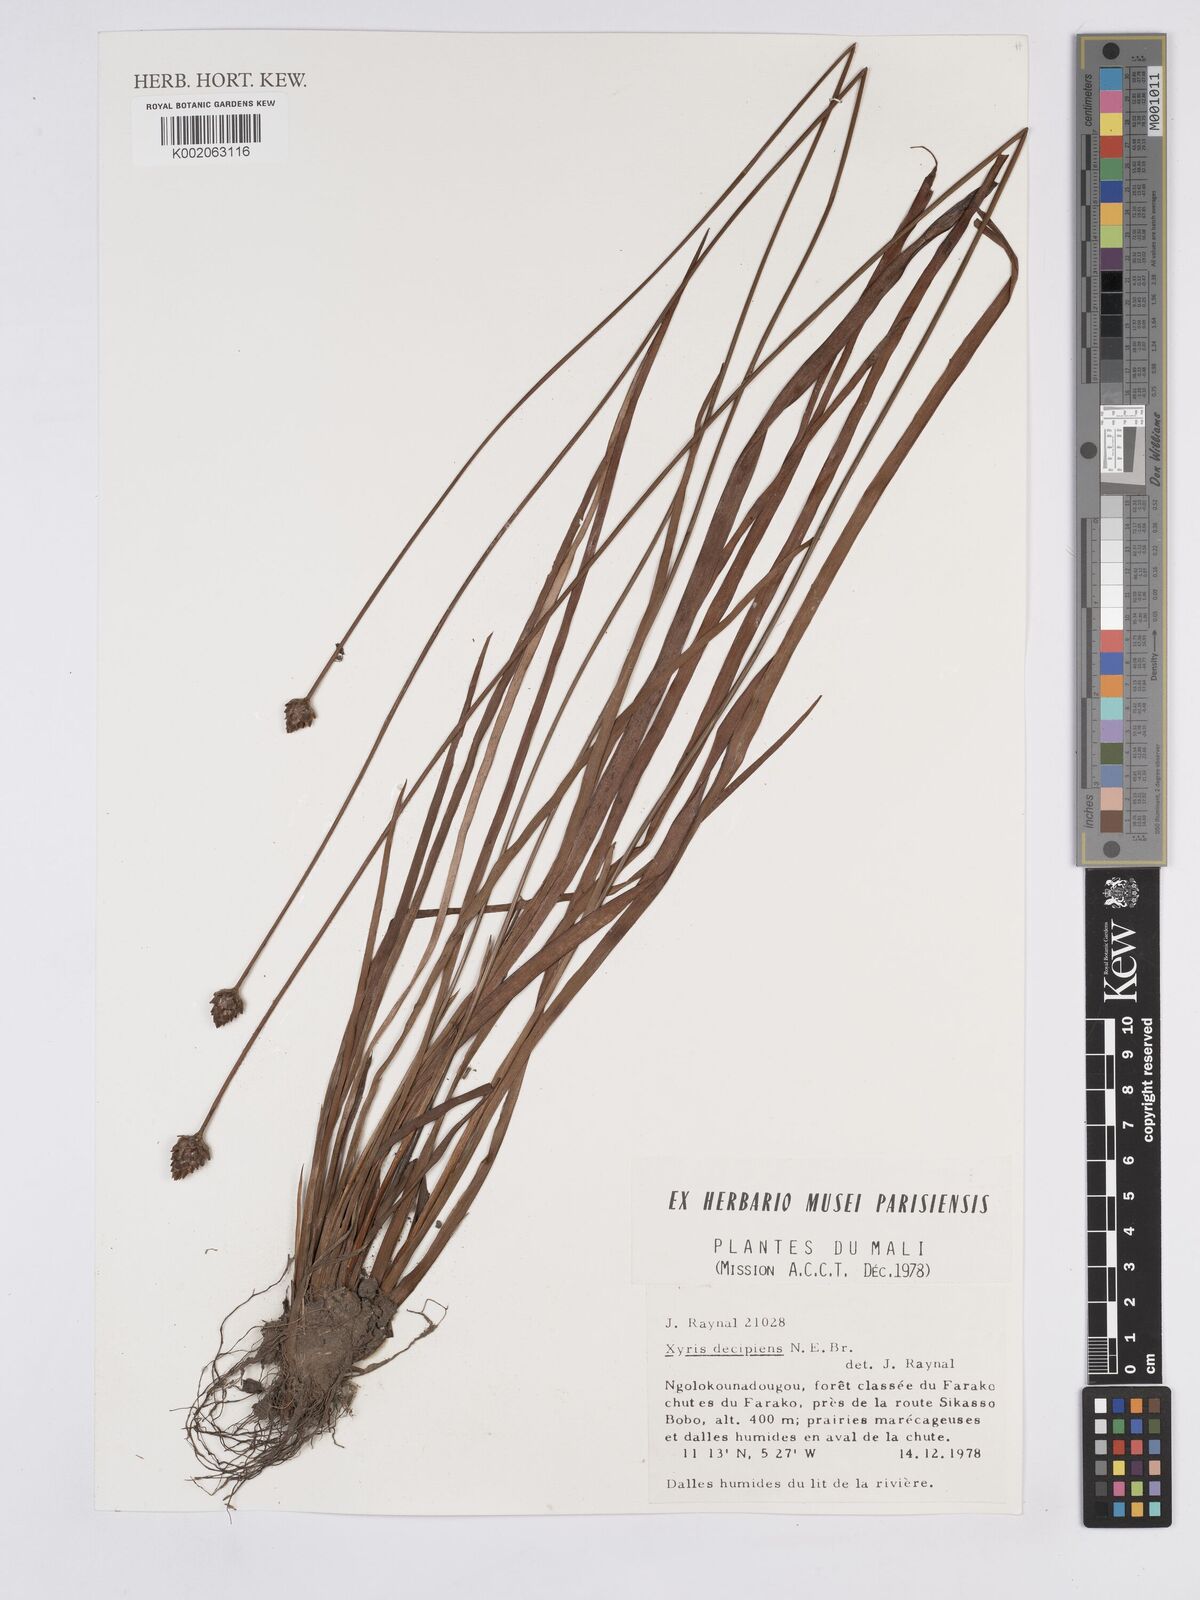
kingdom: Plantae
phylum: Tracheophyta
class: Liliopsida
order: Poales
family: Xyridaceae
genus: Xyris
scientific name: Xyris decipiens
